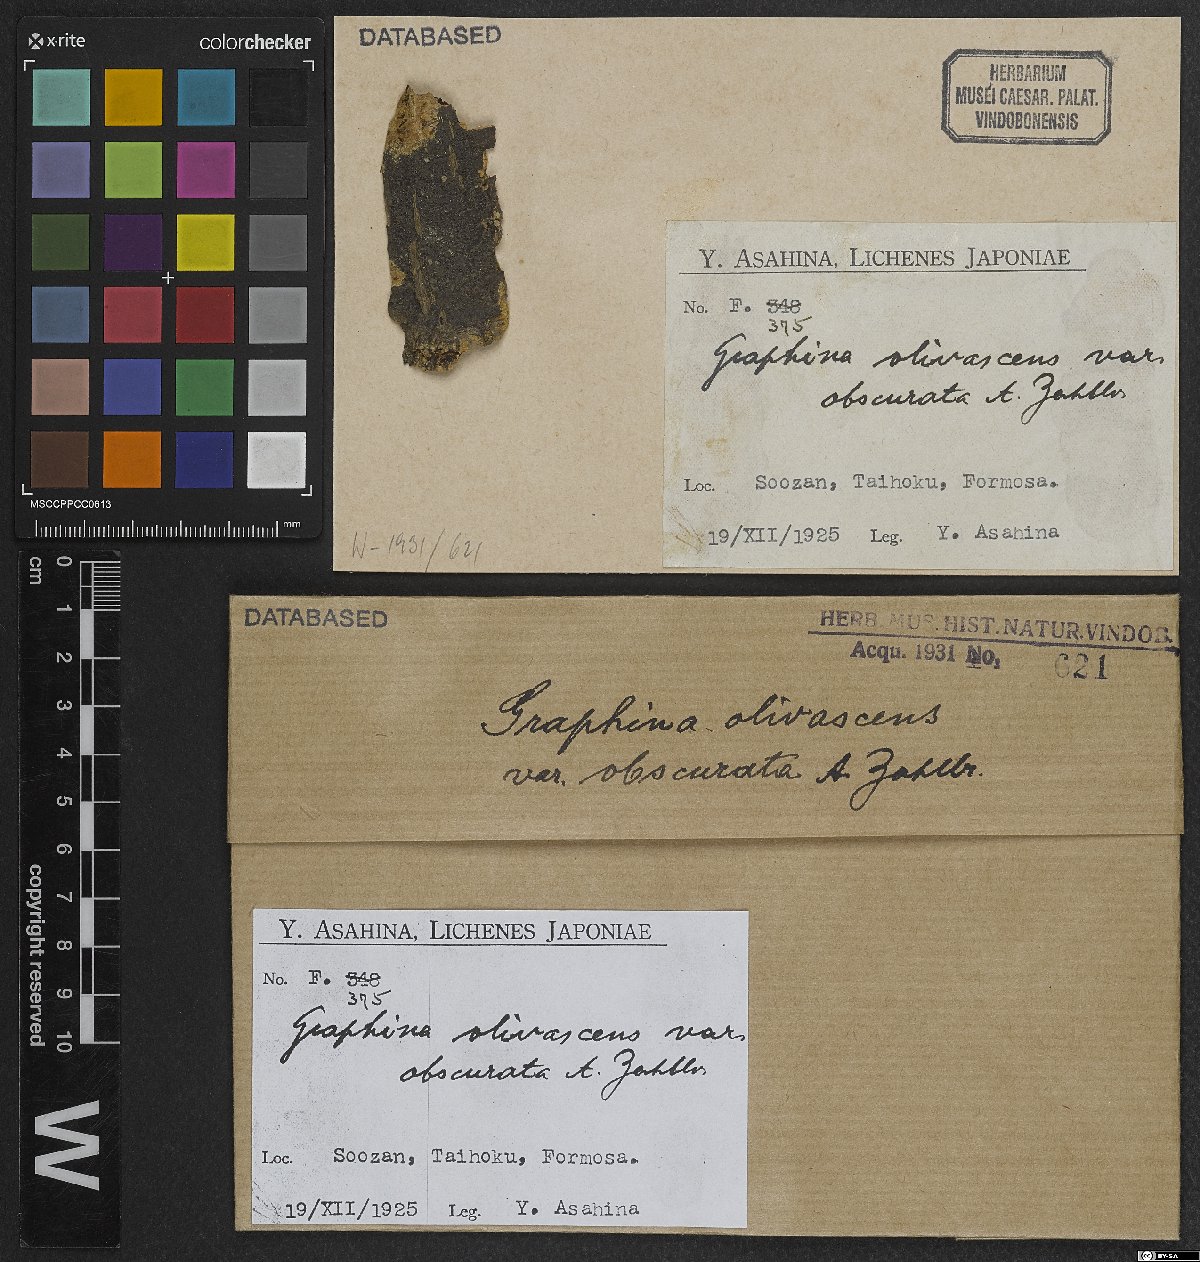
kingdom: Fungi
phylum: Ascomycota
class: Lecanoromycetes
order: Ostropales
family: Graphidaceae
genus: Graphina
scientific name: Graphina olivascens
